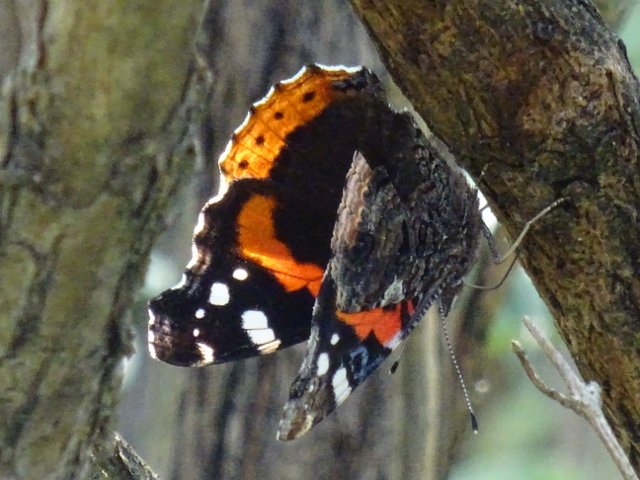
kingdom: Animalia
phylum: Arthropoda
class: Insecta
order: Lepidoptera
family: Nymphalidae
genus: Vanessa
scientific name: Vanessa atalanta
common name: Red Admiral
